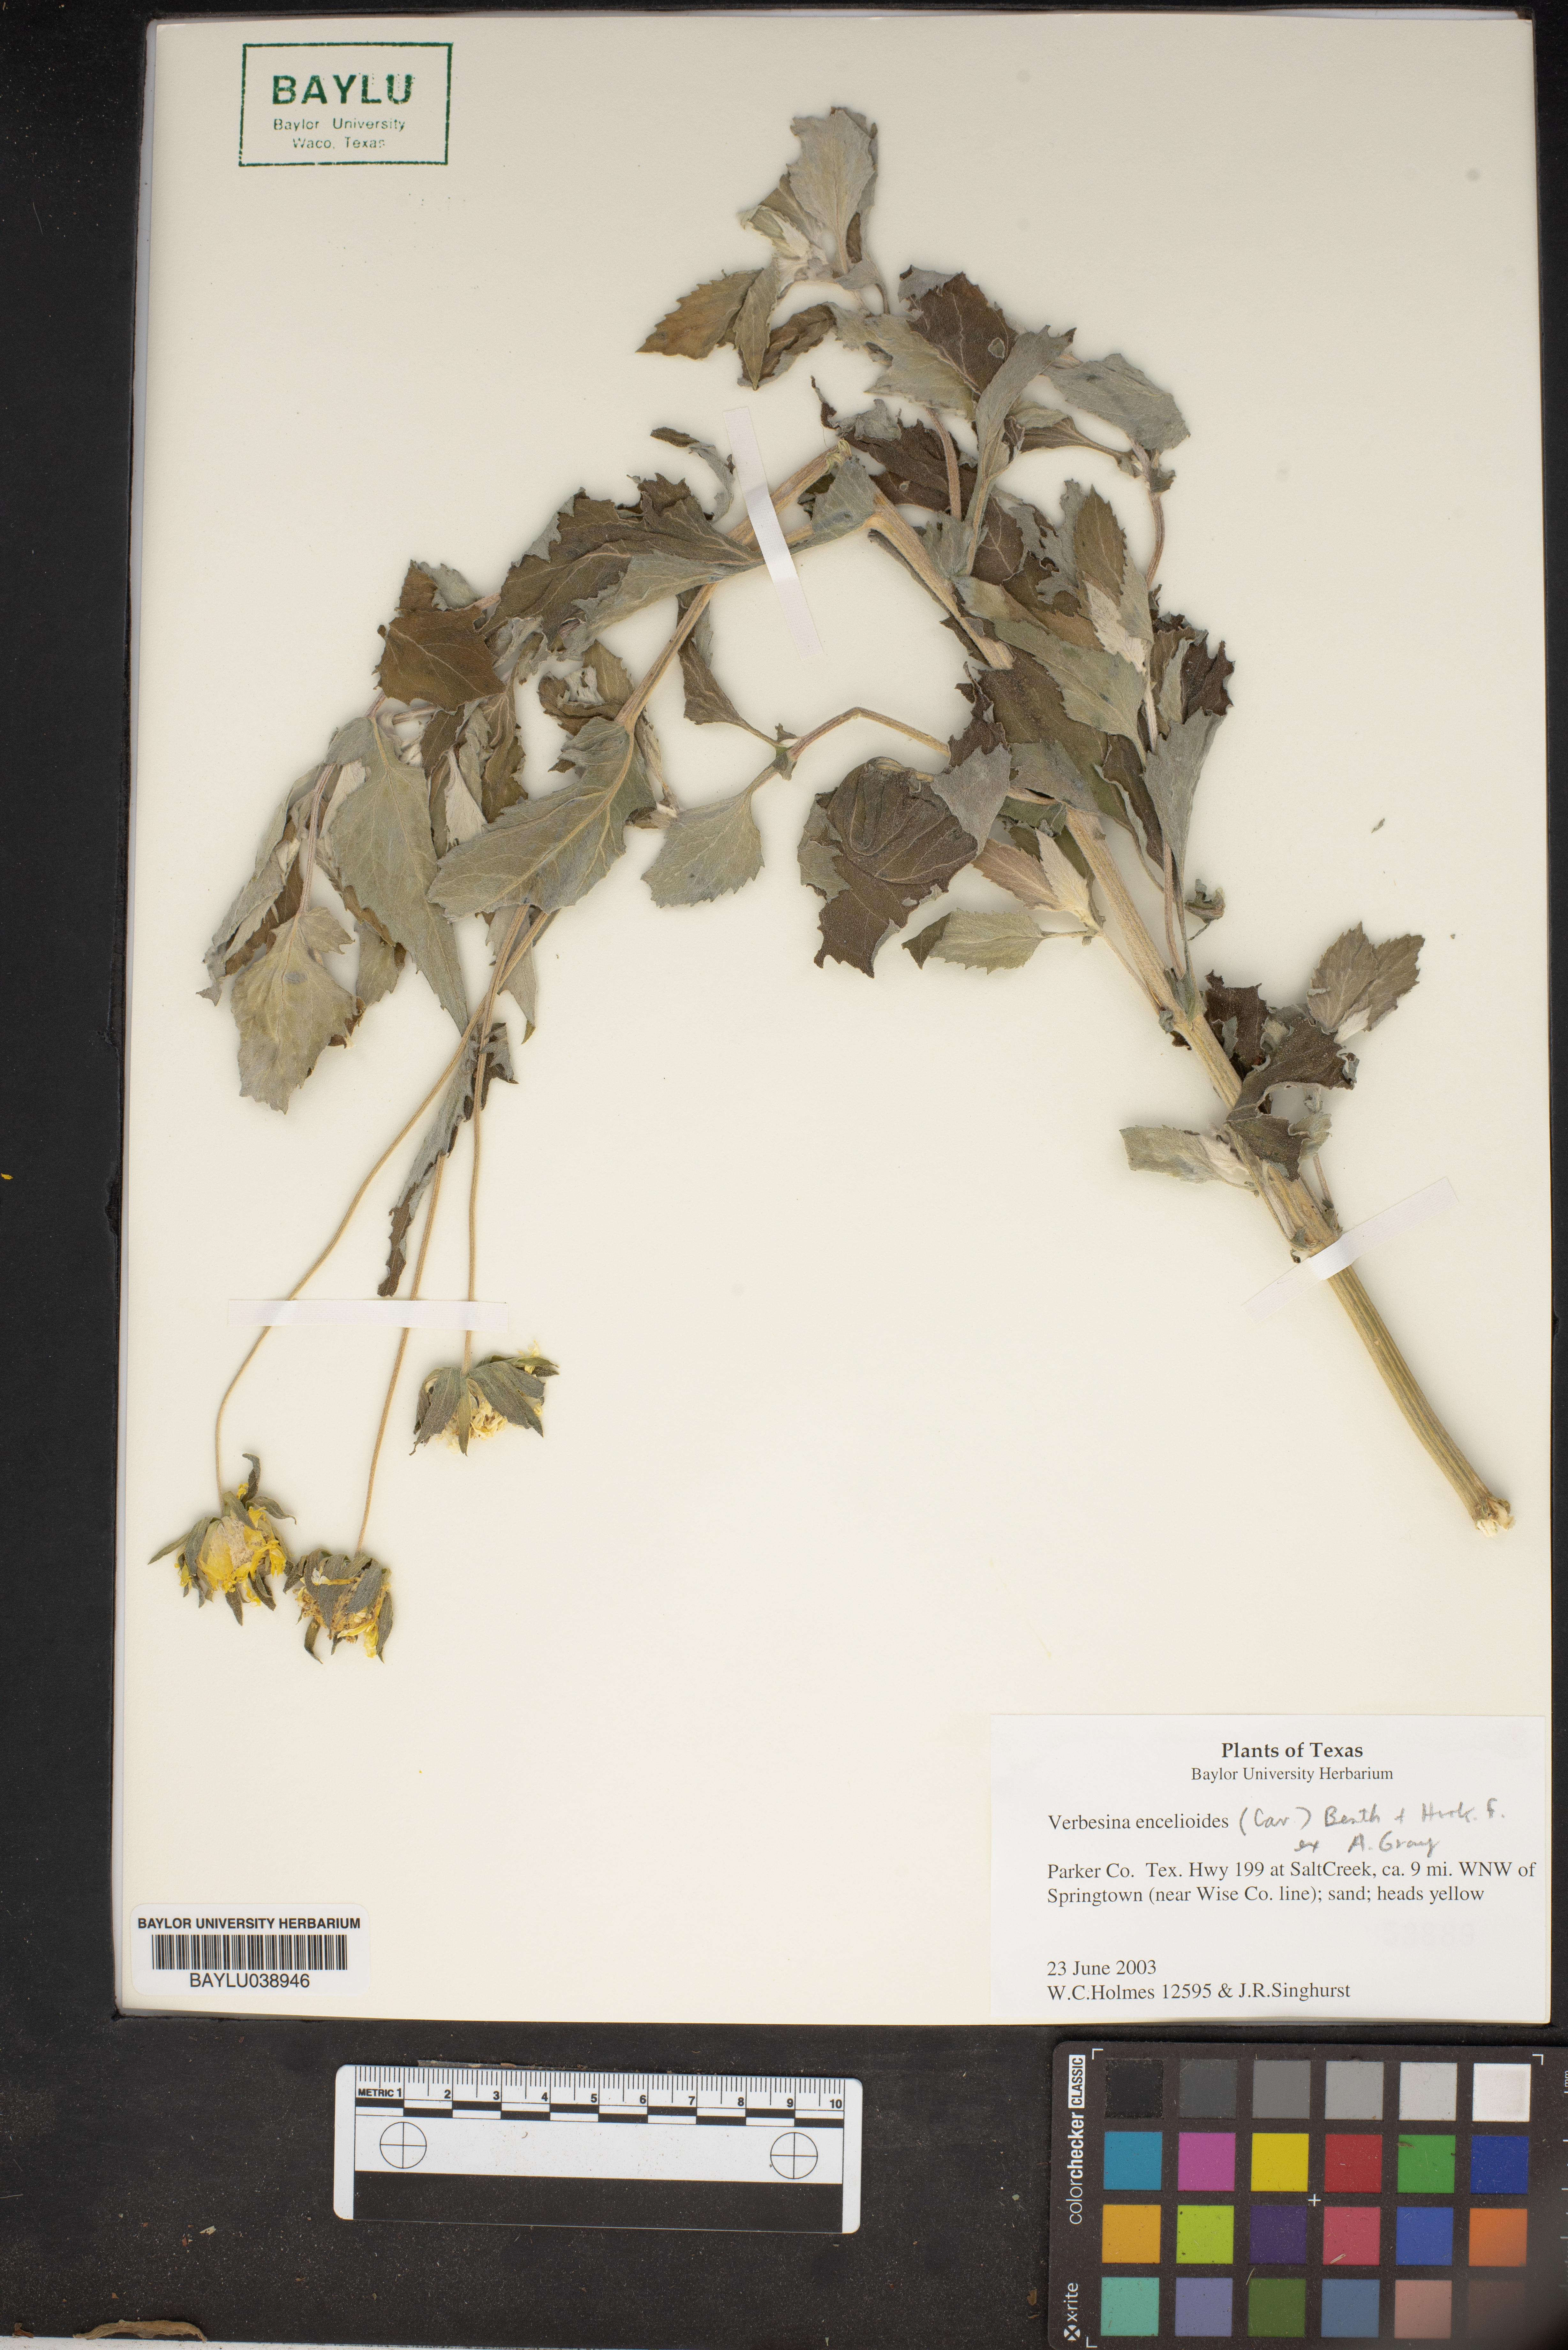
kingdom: Plantae
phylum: Tracheophyta
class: Magnoliopsida
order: Asterales
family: Asteraceae
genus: Verbesina
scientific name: Verbesina encelioides
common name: Golden crownbeard
